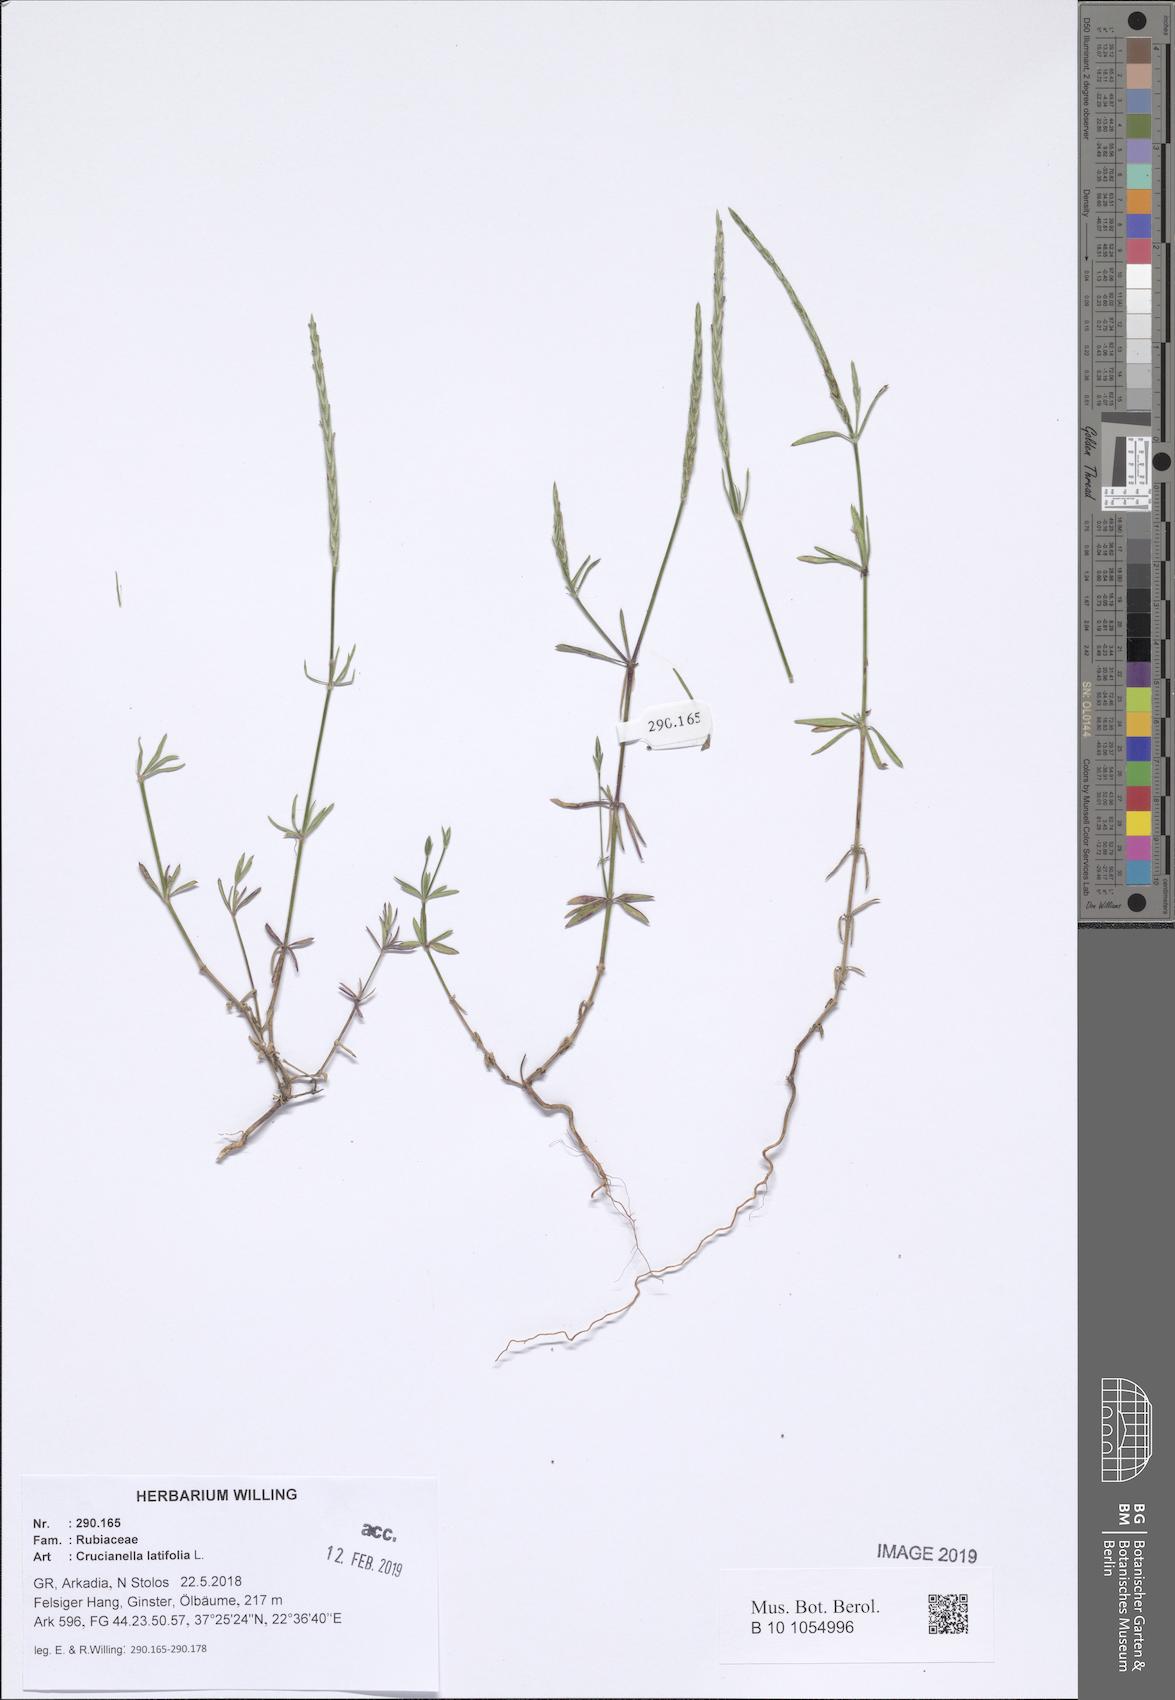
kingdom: Plantae
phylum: Tracheophyta
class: Magnoliopsida
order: Gentianales
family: Rubiaceae
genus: Crucianella
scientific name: Crucianella latifolia
